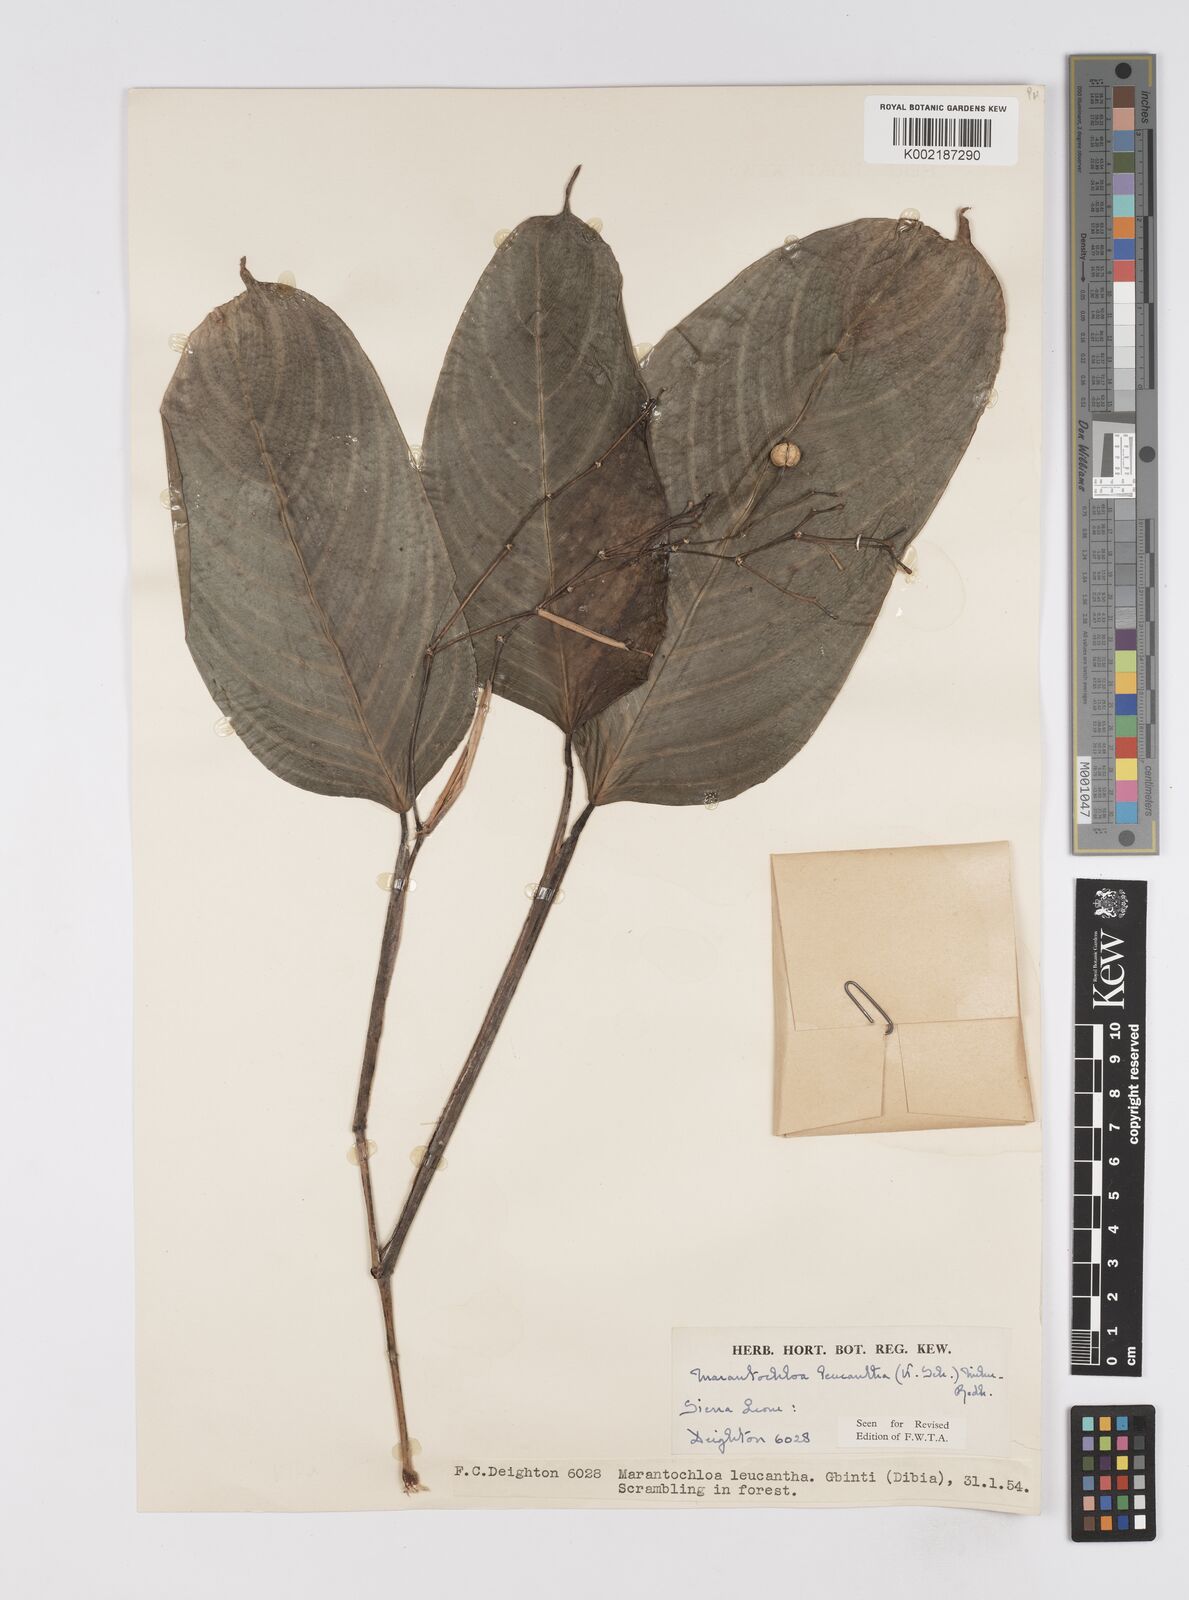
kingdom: Plantae
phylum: Tracheophyta
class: Liliopsida
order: Zingiberales
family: Marantaceae
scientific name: Marantaceae
